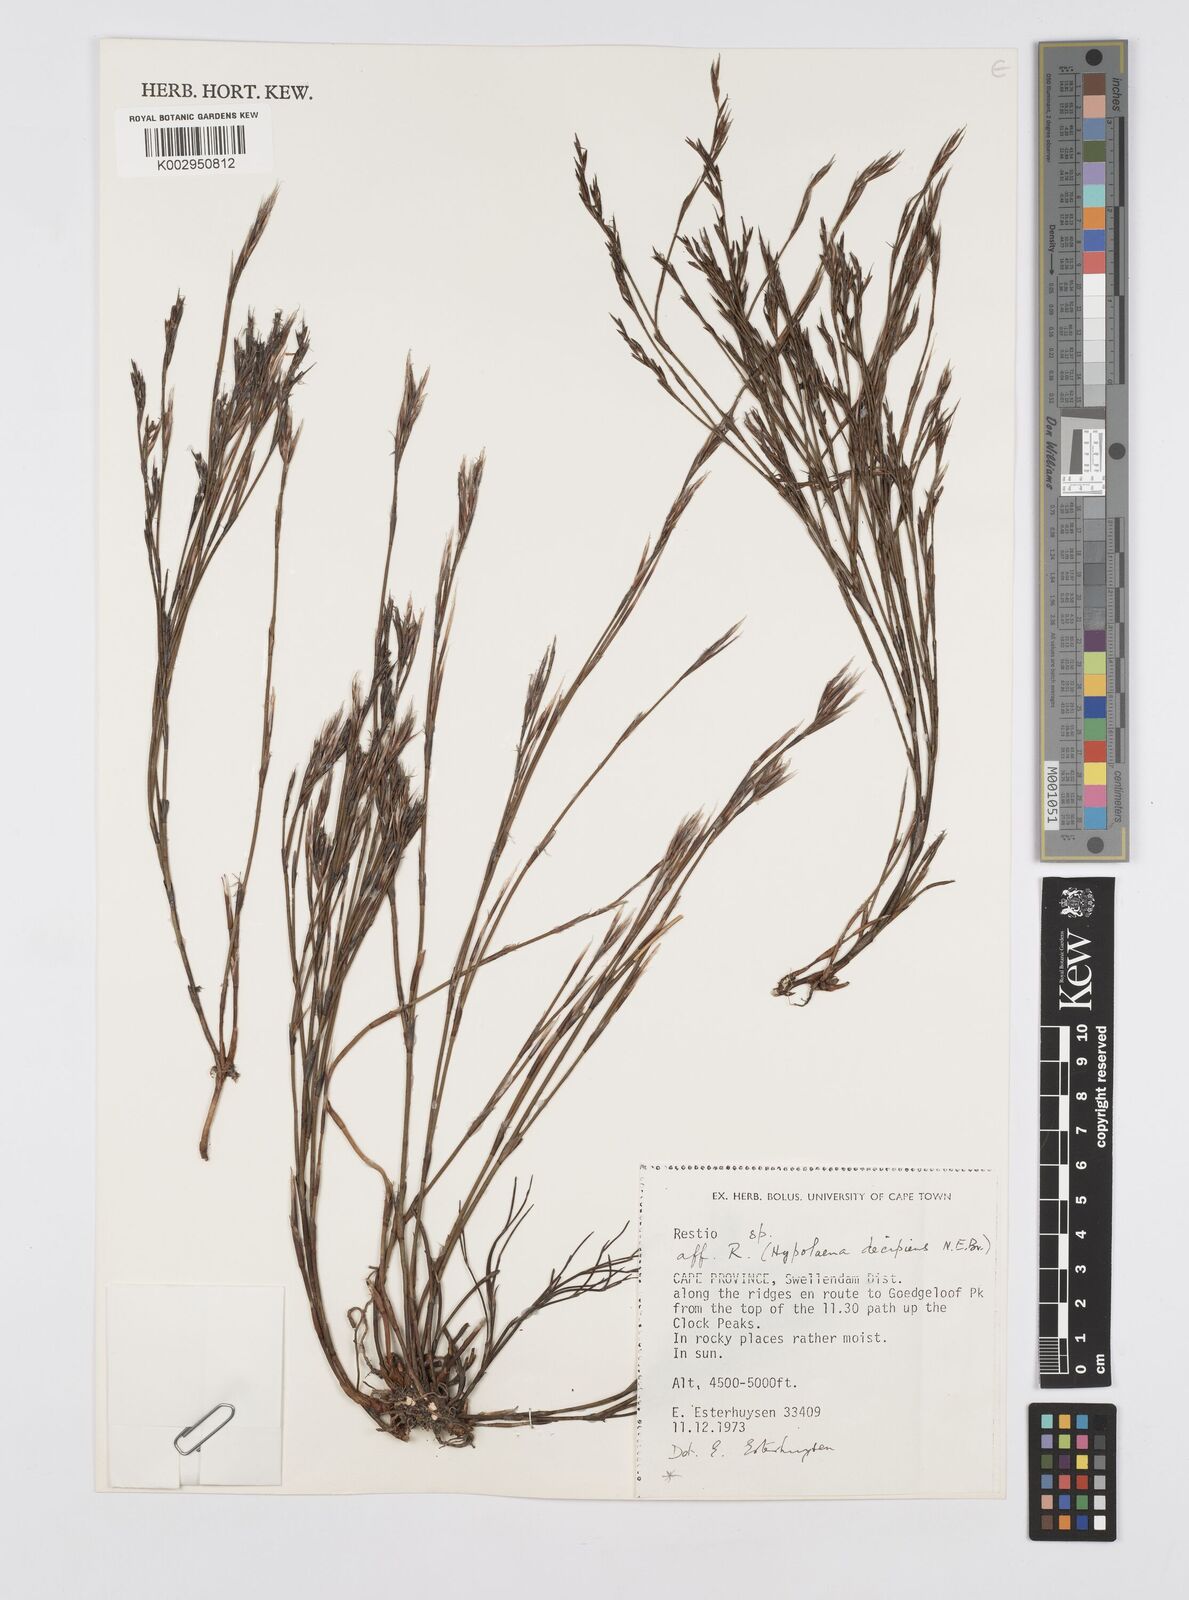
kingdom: Plantae
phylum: Tracheophyta
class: Liliopsida
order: Poales
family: Restionaceae
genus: Restio
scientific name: Restio decipiens
